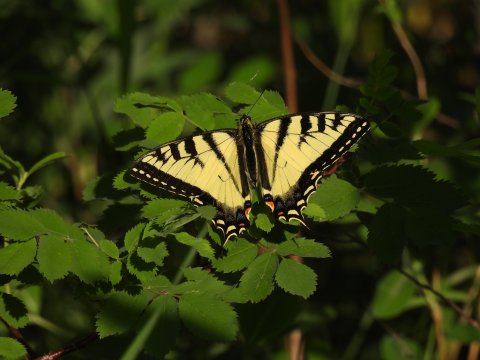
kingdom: Animalia
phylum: Arthropoda
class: Insecta
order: Lepidoptera
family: Papilionidae
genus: Pterourus
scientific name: Pterourus canadensis
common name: Canadian Tiger Swallowtail
